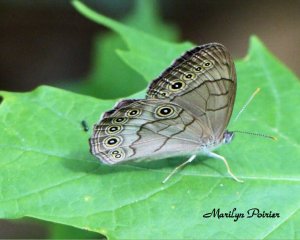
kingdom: Animalia
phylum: Arthropoda
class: Insecta
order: Lepidoptera
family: Nymphalidae
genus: Lethe
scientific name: Lethe anthedon
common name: Northern Pearly-Eye
